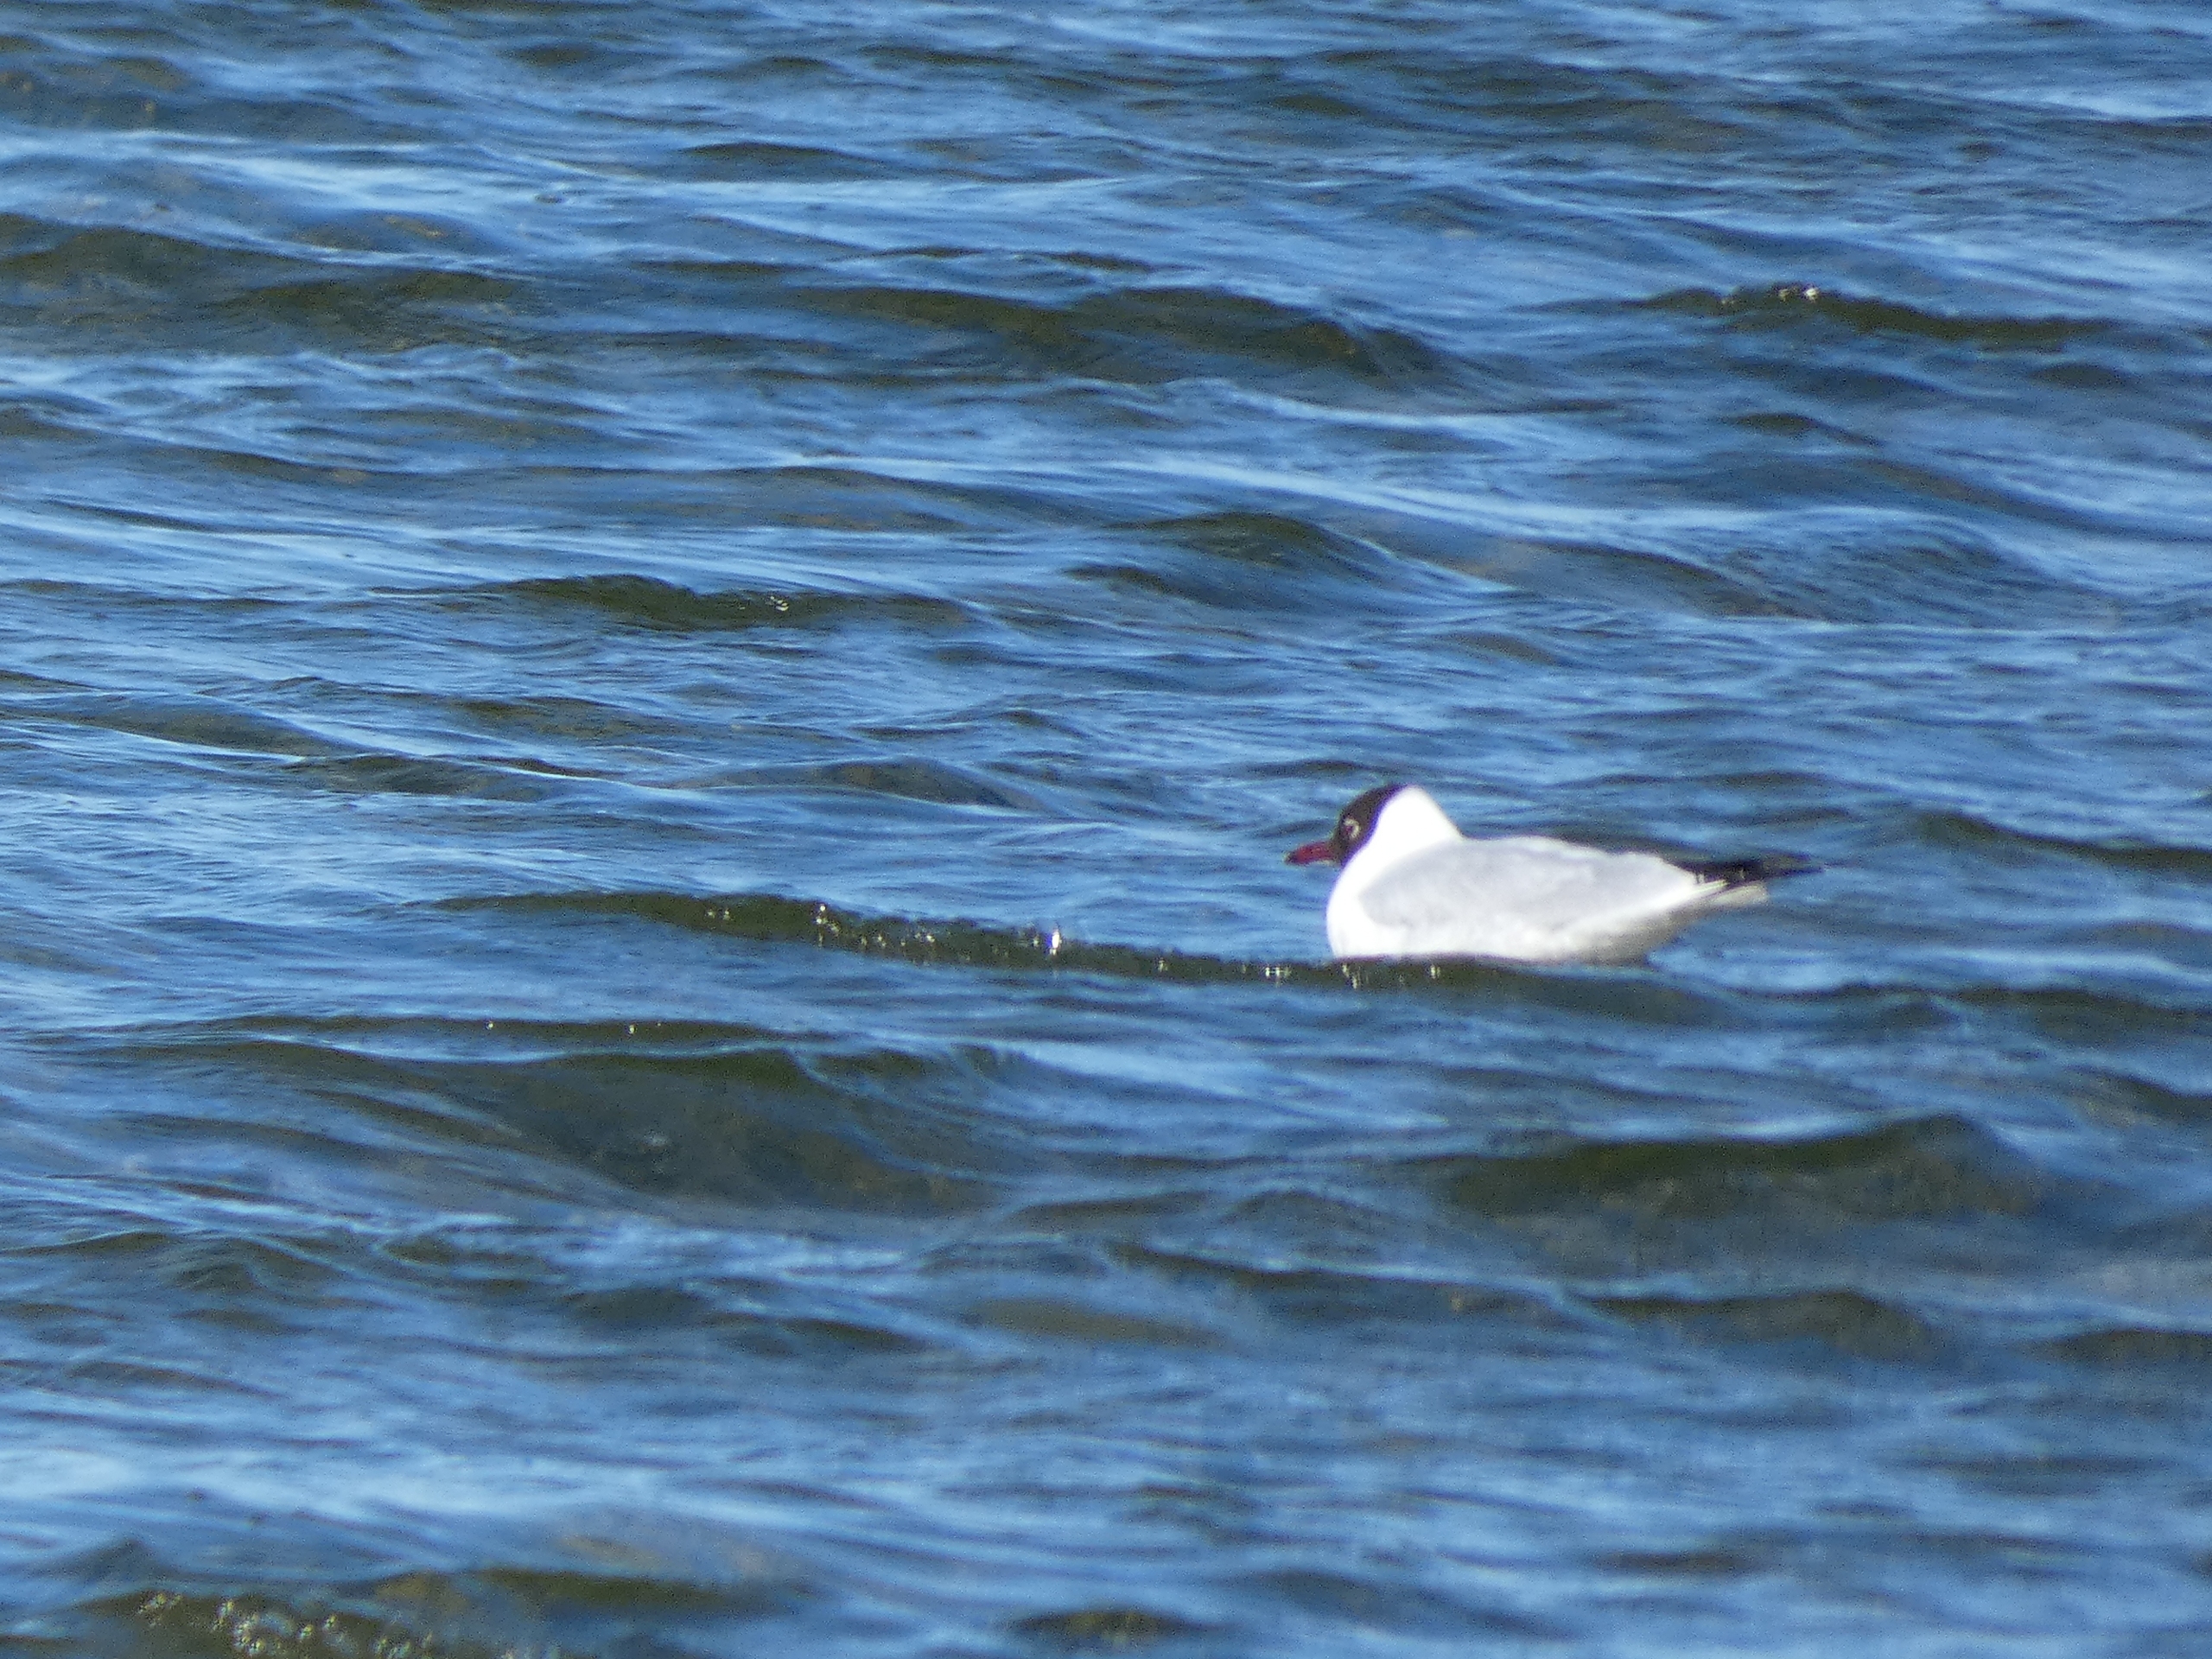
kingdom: Animalia
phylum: Chordata
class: Aves
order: Charadriiformes
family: Laridae
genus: Chroicocephalus
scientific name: Chroicocephalus ridibundus
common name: Hættemåge
